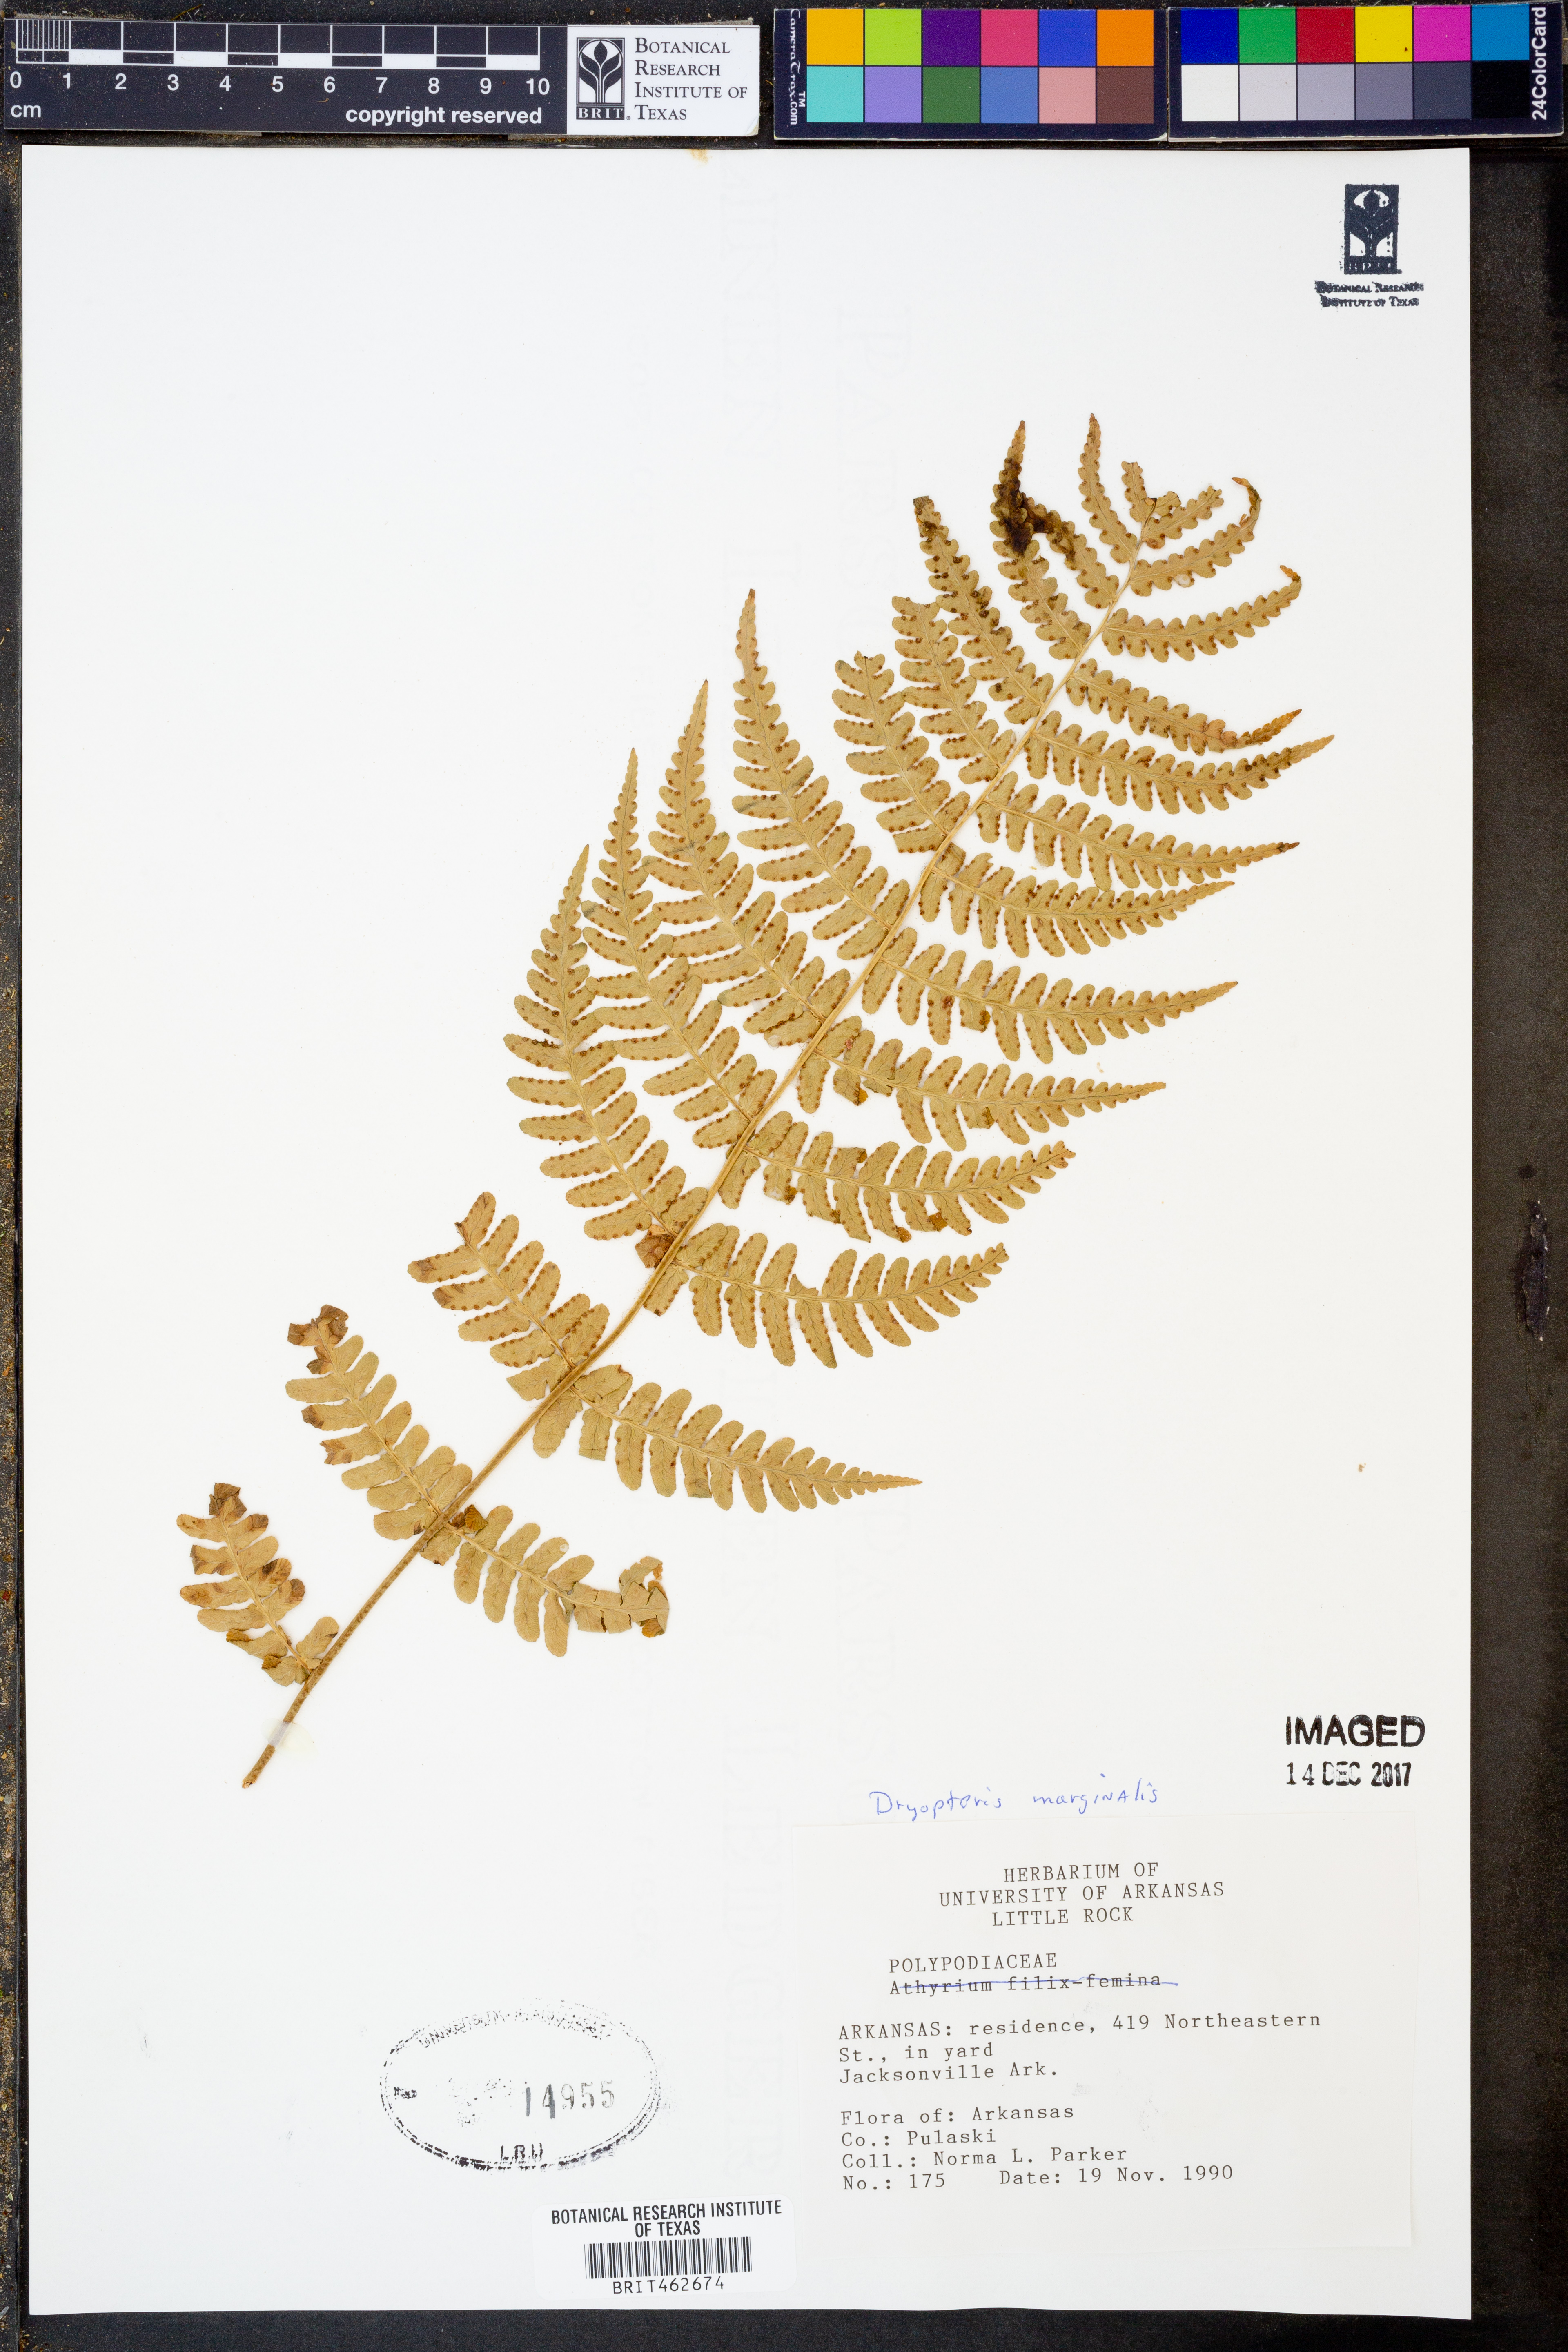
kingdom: Plantae
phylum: Tracheophyta
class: Polypodiopsida
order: Polypodiales
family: Dryopteridaceae
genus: Dryopteris
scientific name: Dryopteris marginalis
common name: Marginal wood fern
